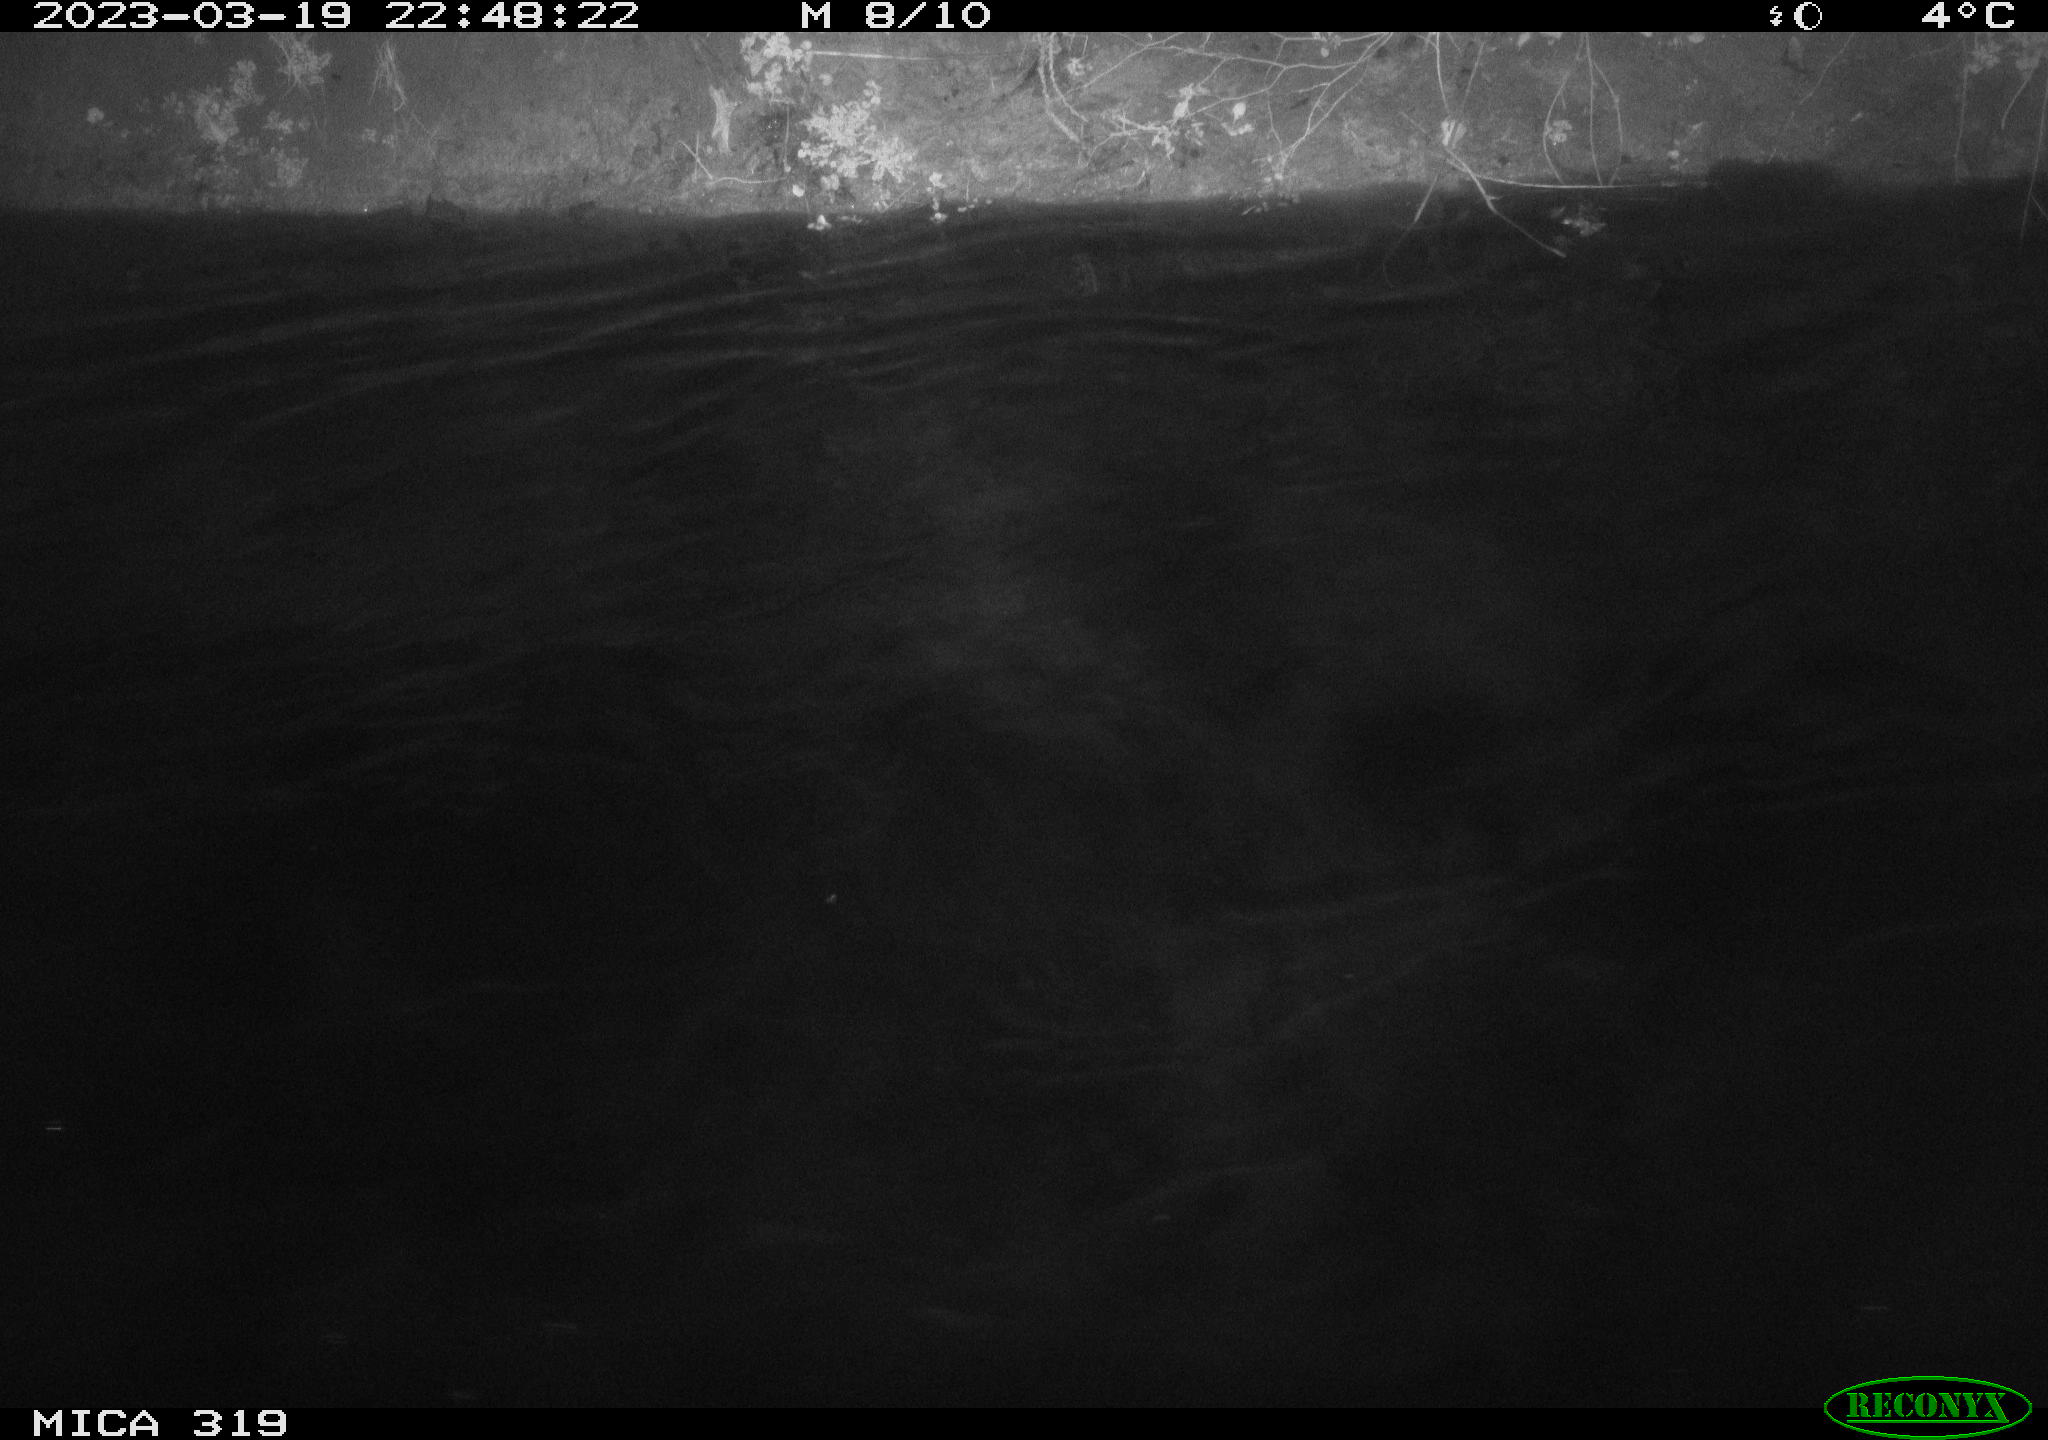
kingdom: Animalia
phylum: Chordata
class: Aves
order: Anseriformes
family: Anatidae
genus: Anas
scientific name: Anas
